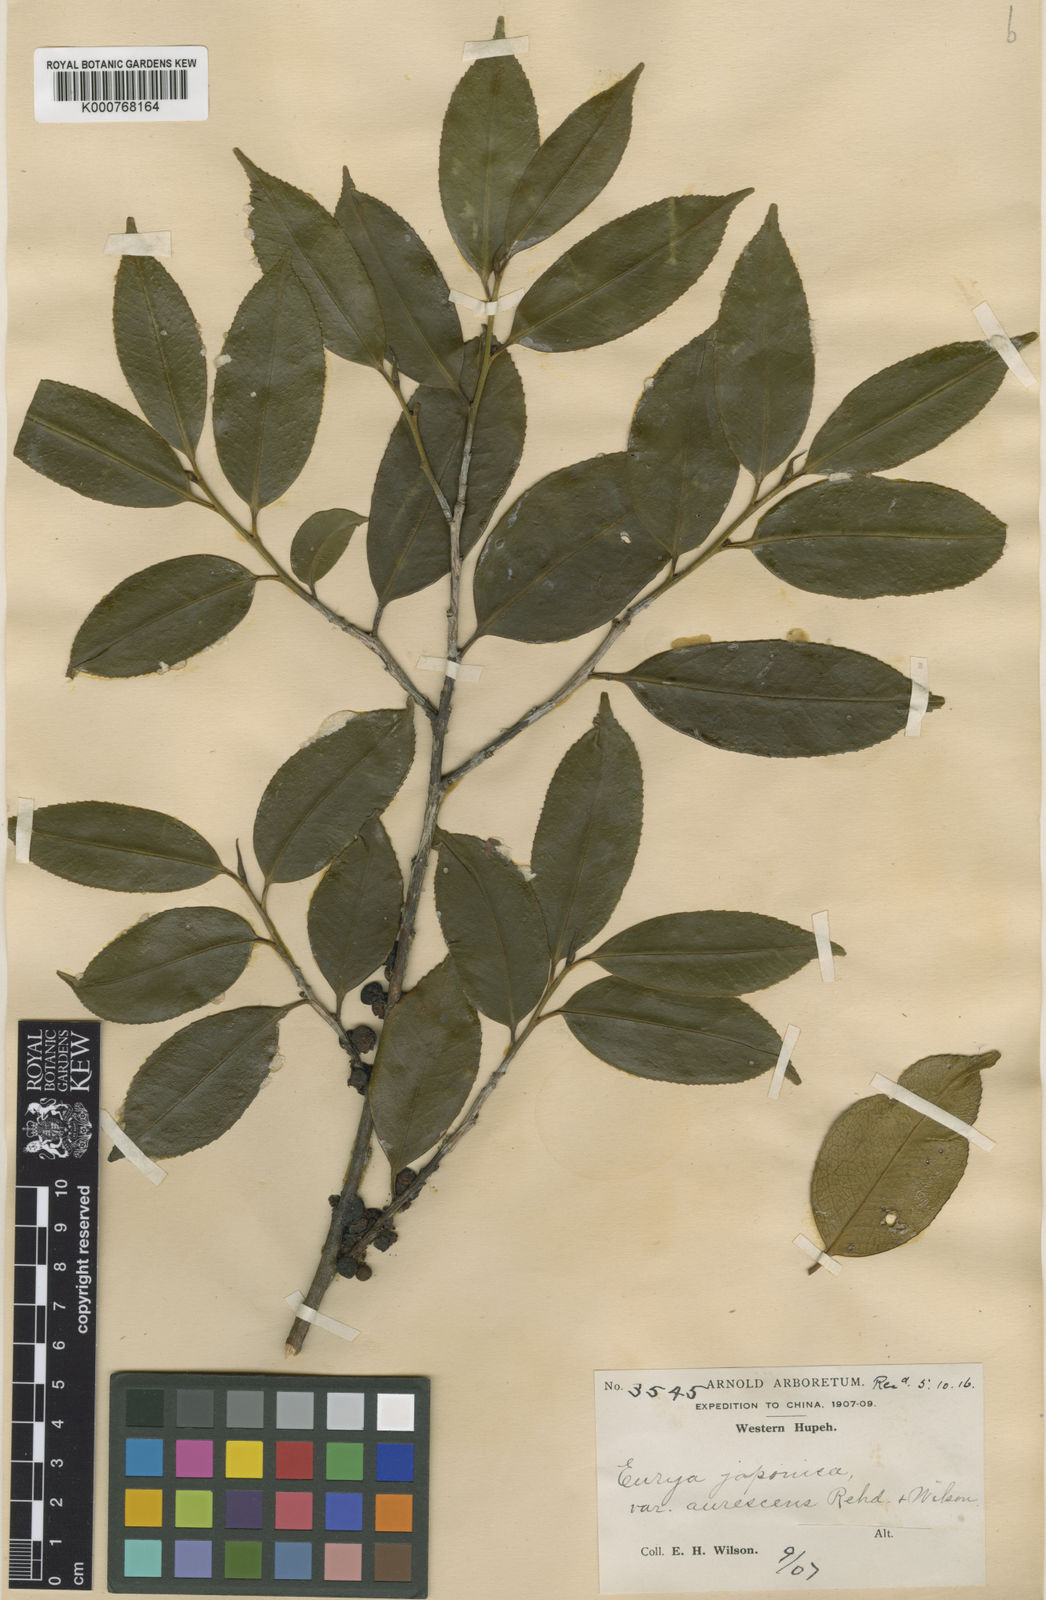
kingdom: Plantae
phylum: Tracheophyta
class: Magnoliopsida
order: Ericales
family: Pentaphylacaceae
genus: Eurya
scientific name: Eurya japonica
